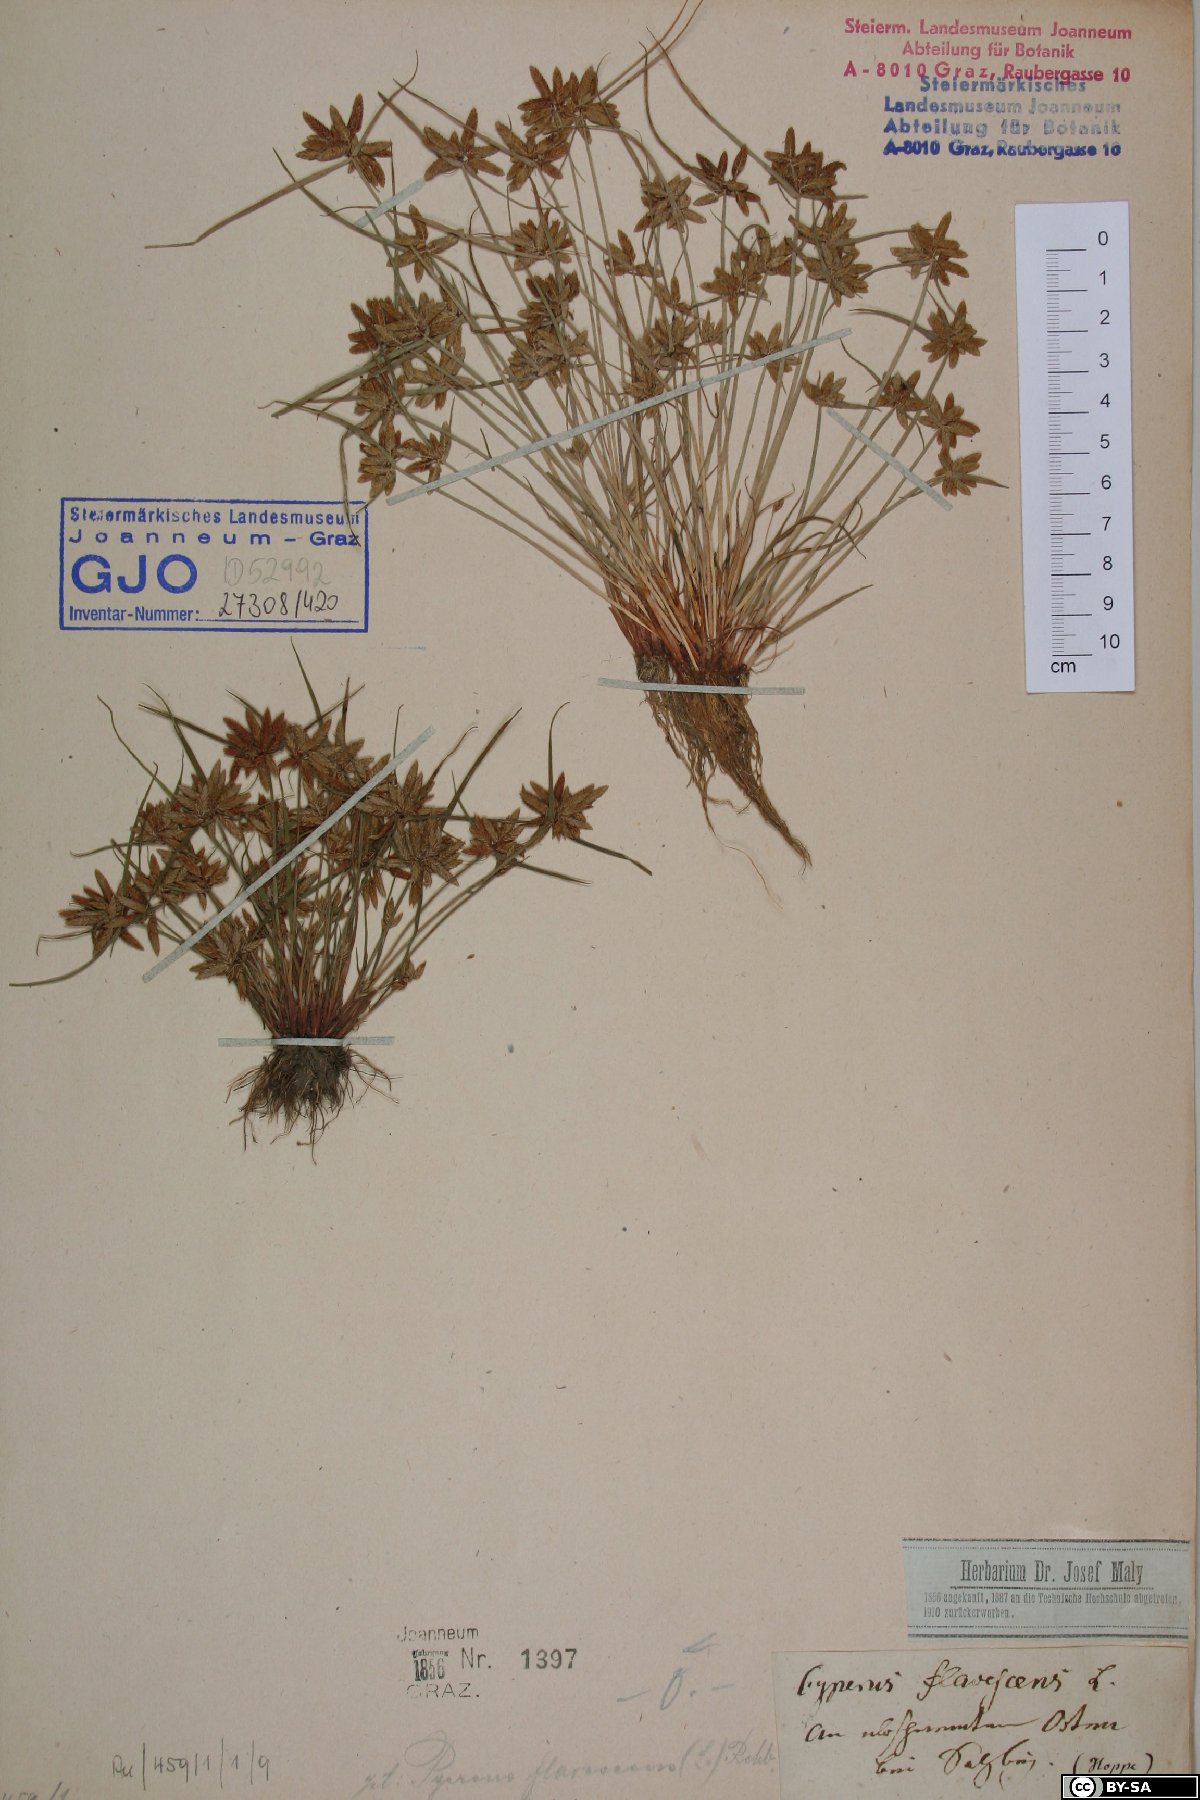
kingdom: Plantae
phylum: Tracheophyta
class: Liliopsida
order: Poales
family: Cyperaceae
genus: Cyperus
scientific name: Cyperus flavescens
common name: Yellow galingale
